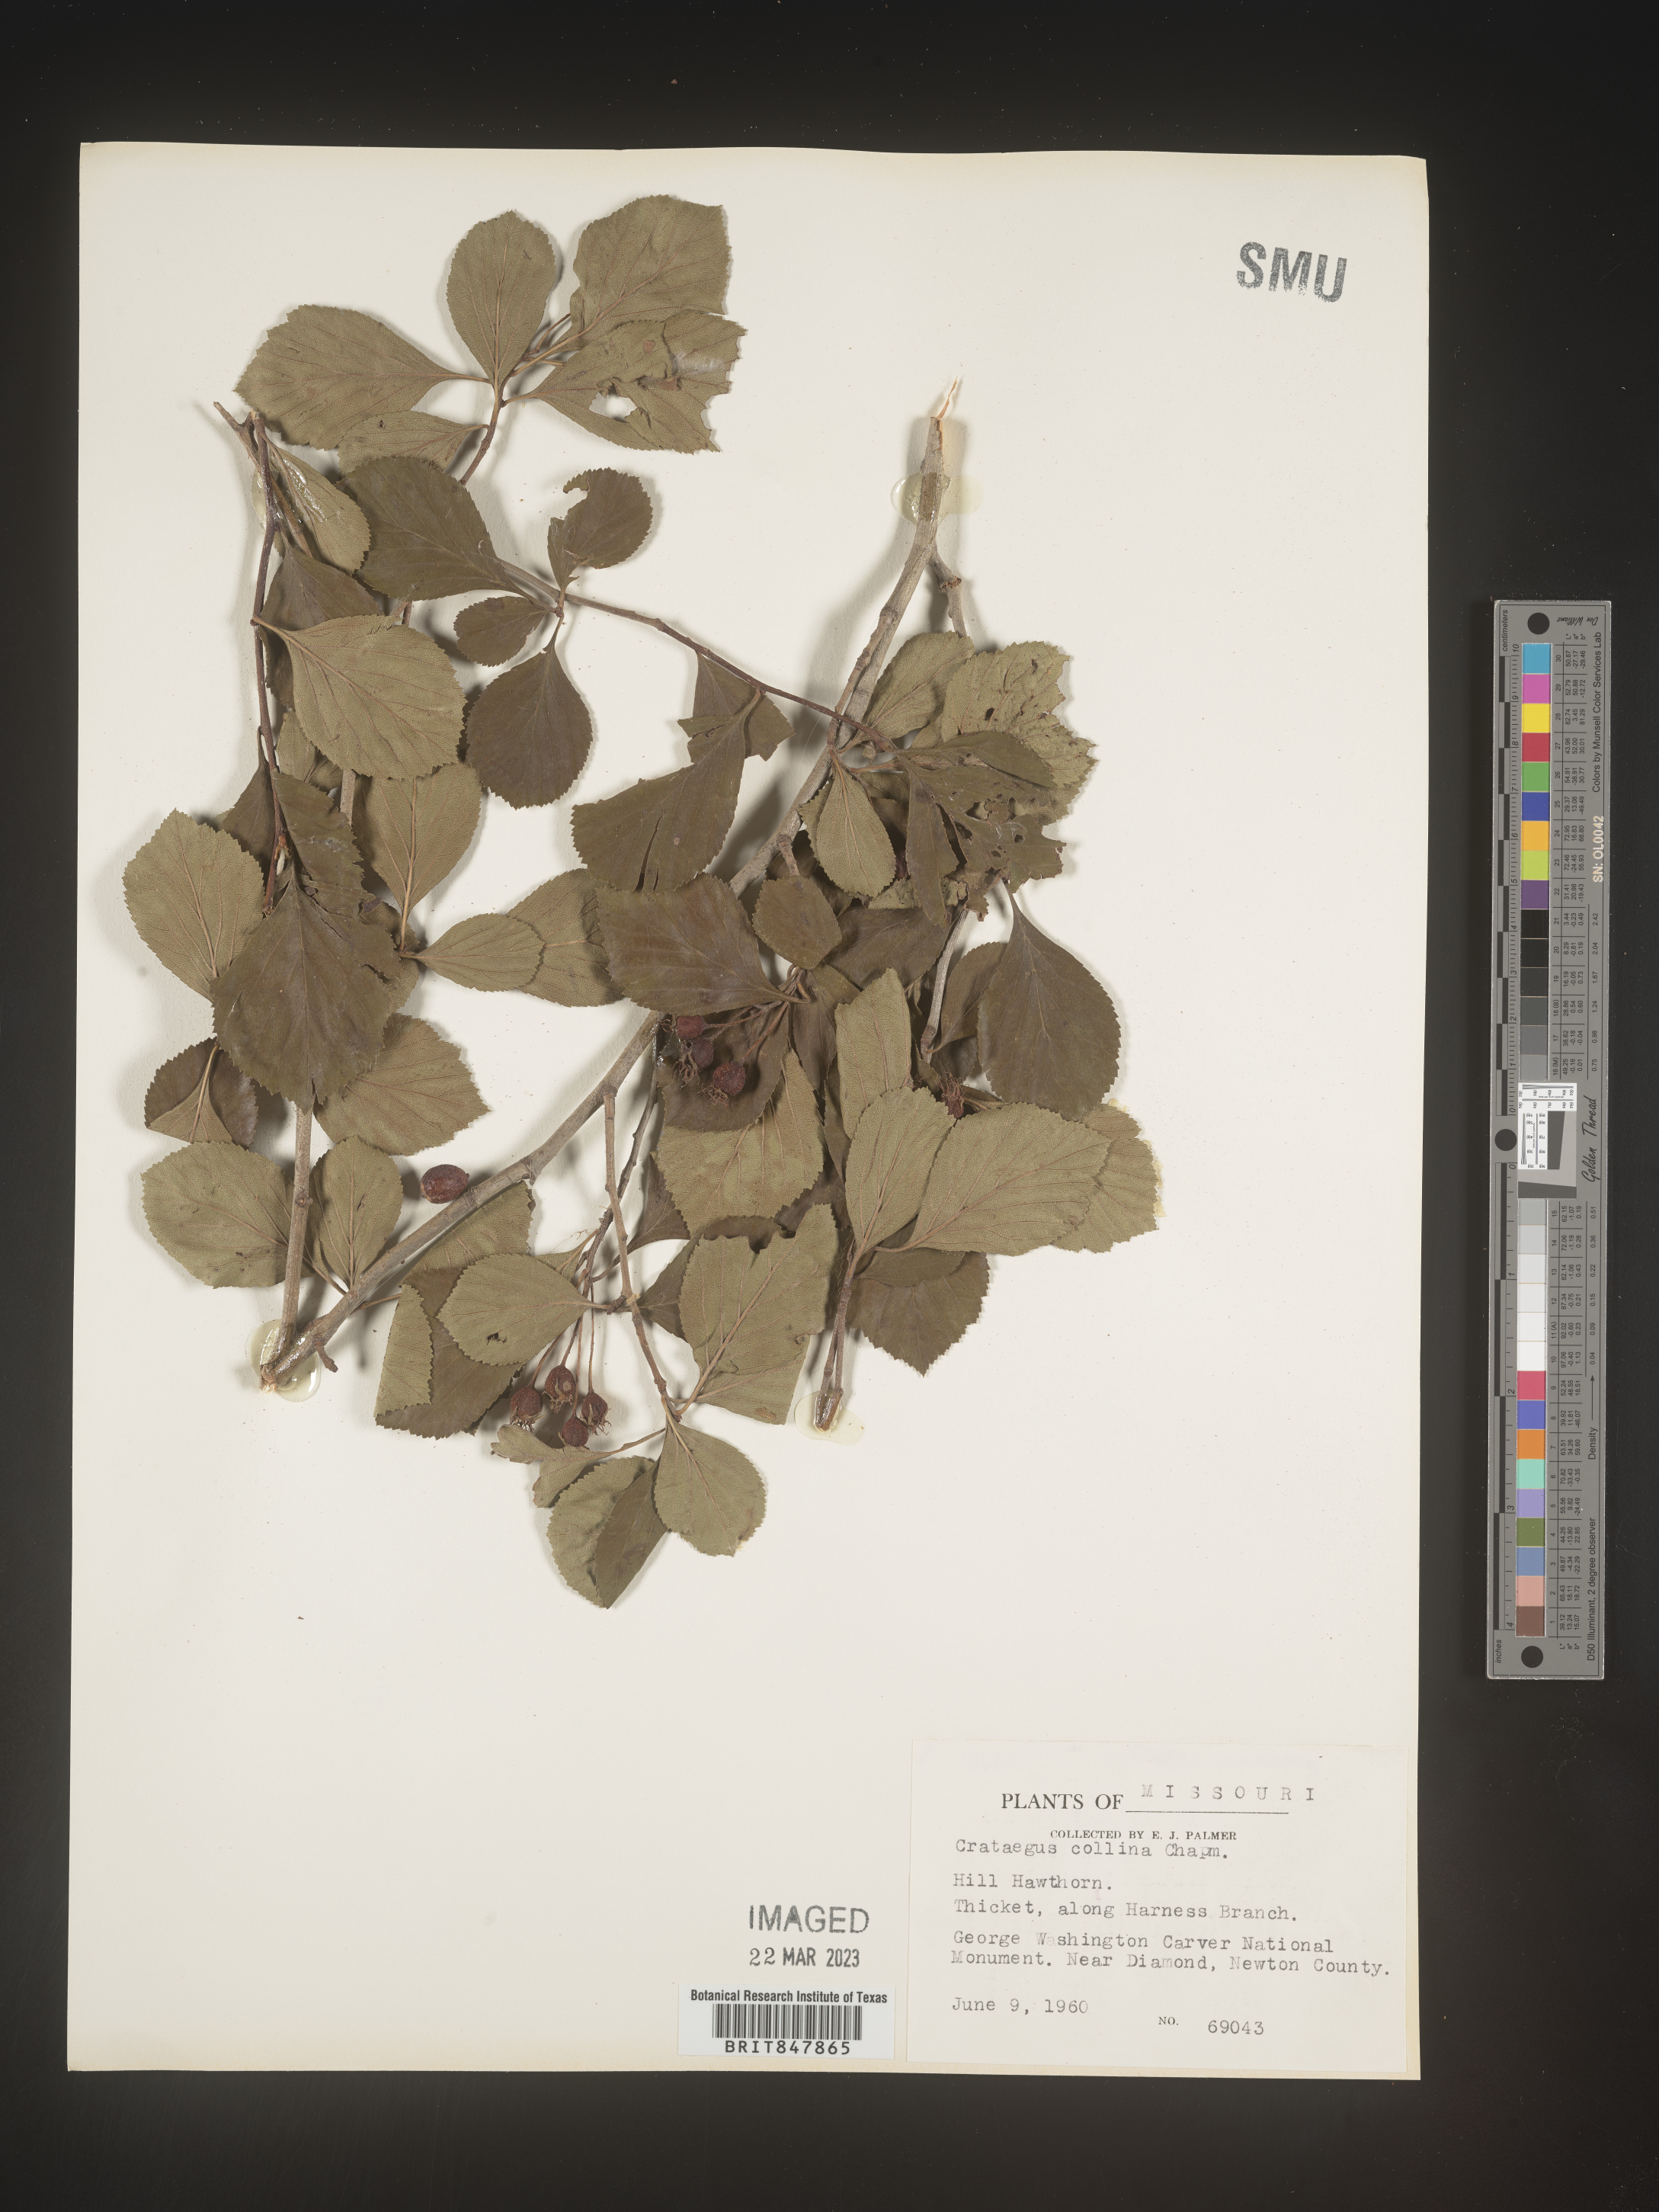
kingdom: Plantae
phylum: Tracheophyta
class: Magnoliopsida
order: Rosales
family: Rosaceae
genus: Crataegus
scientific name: Crataegus
